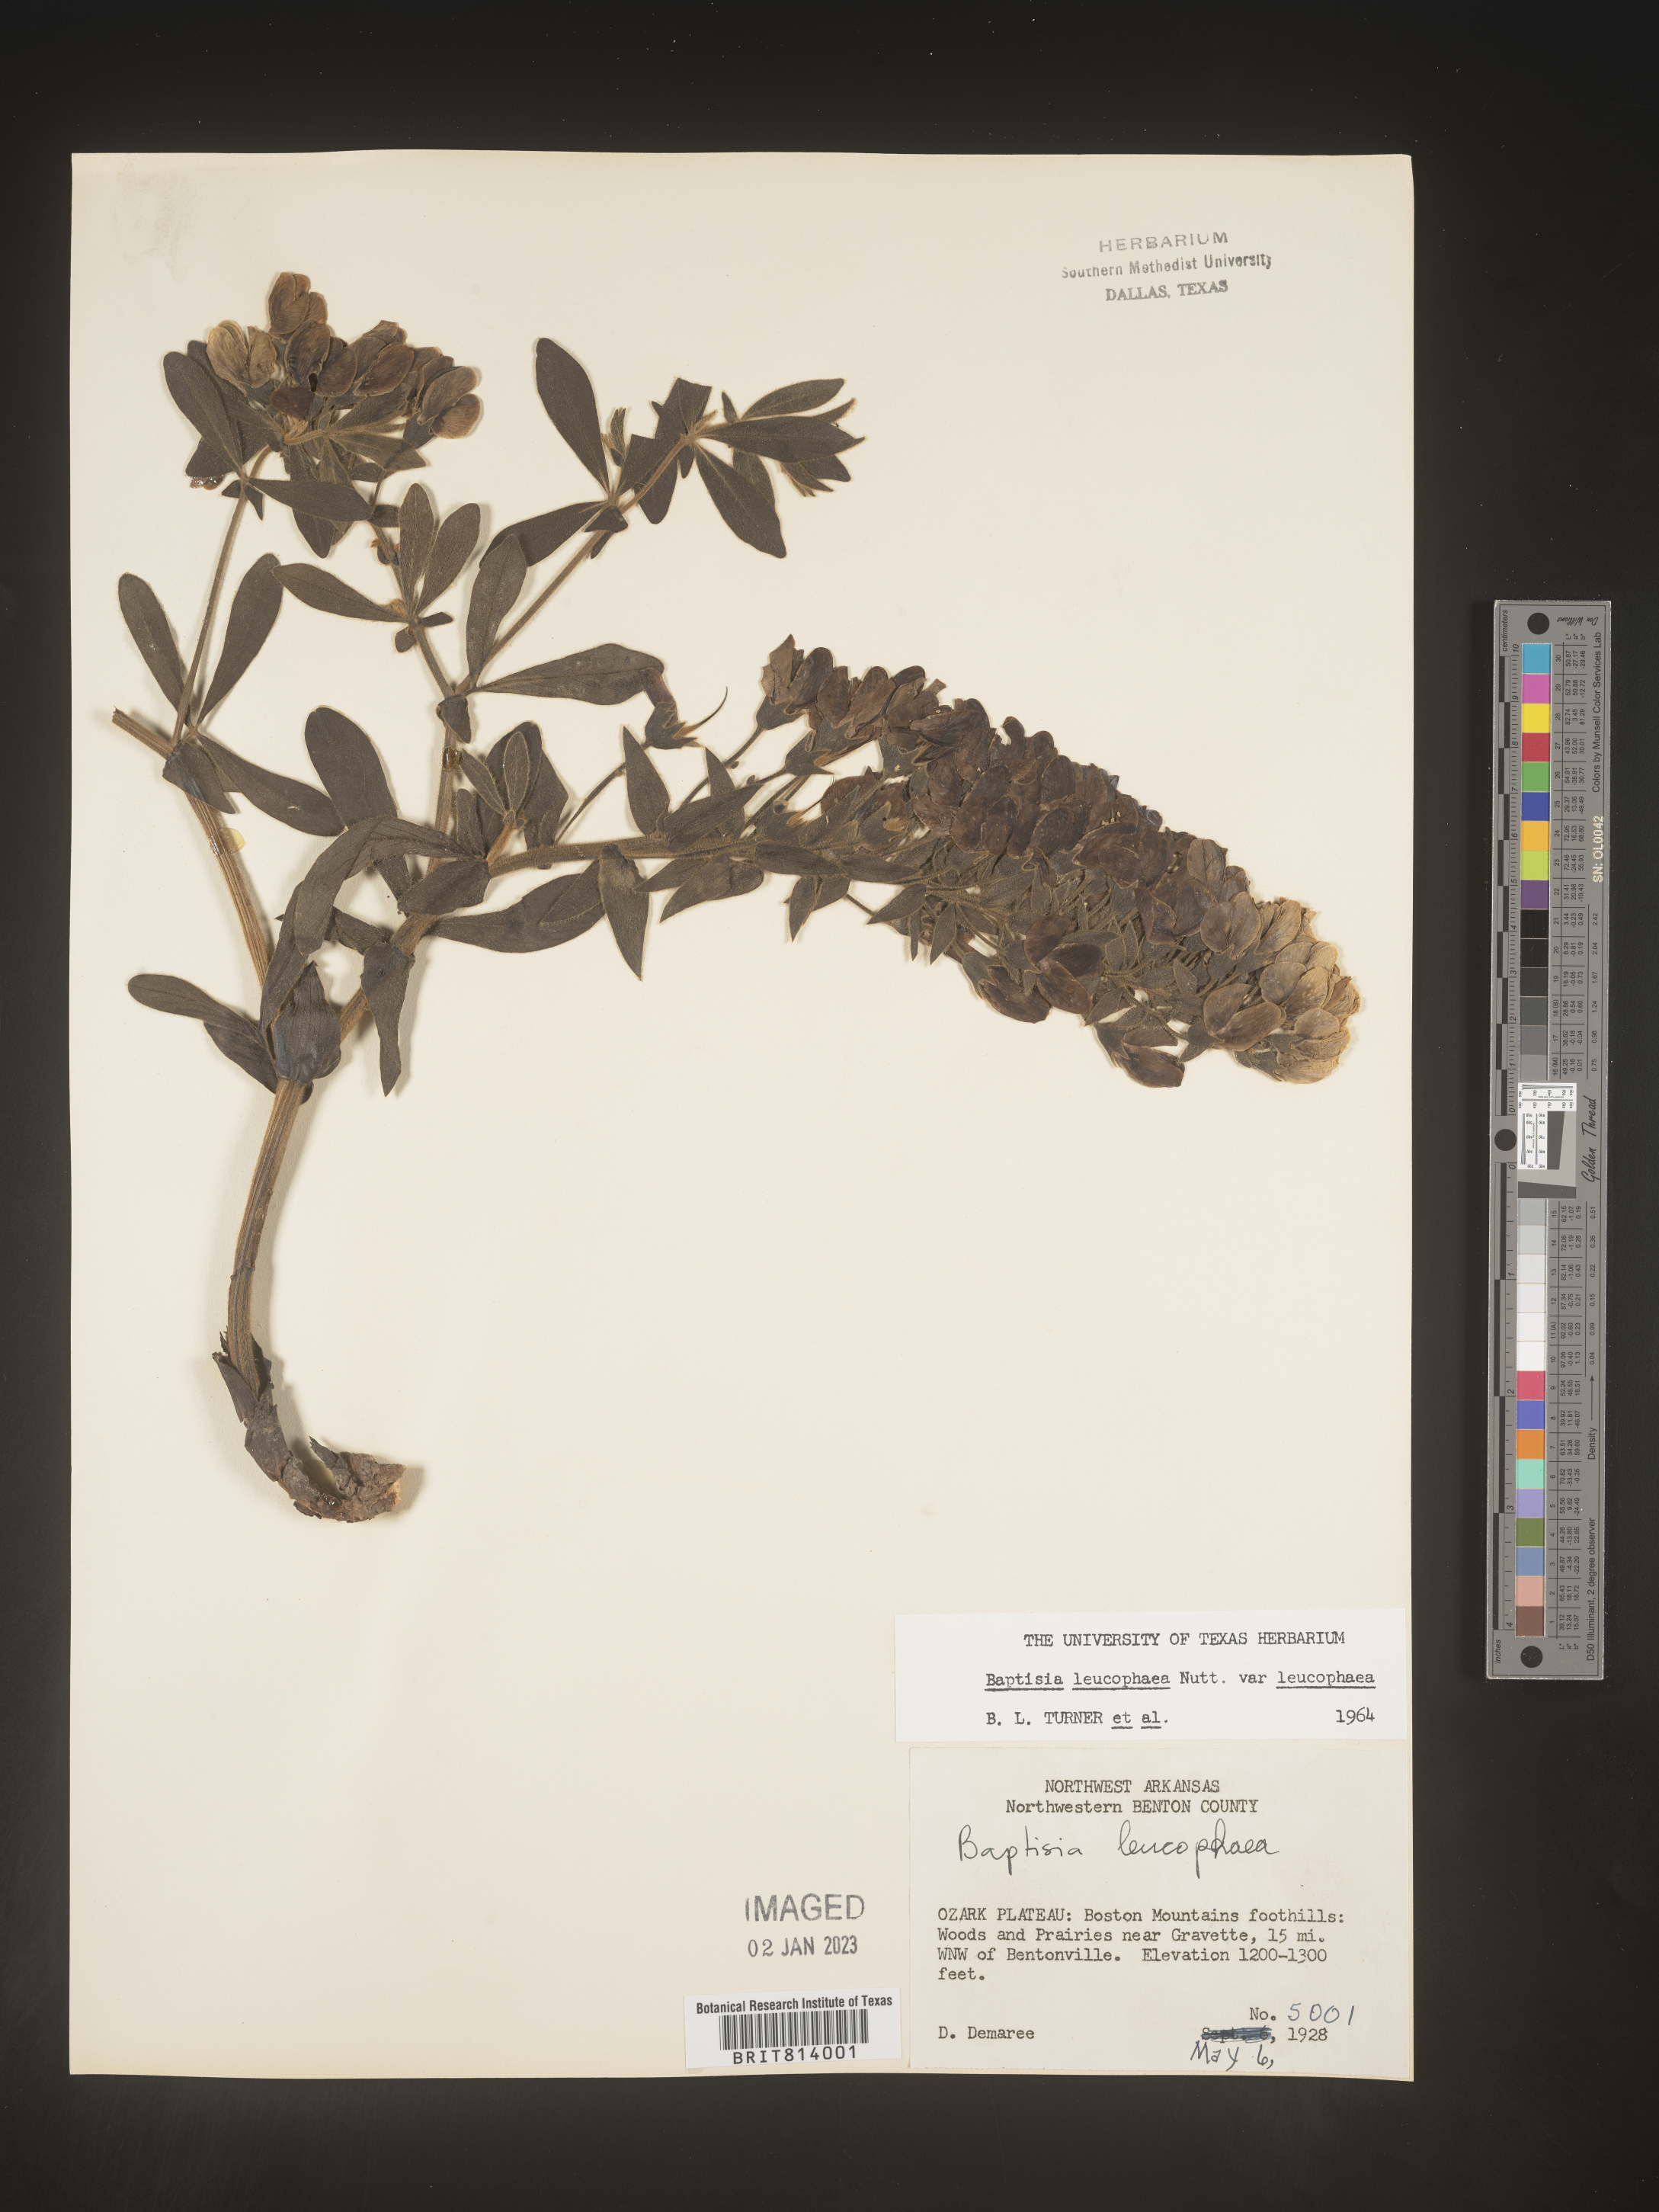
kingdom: Plantae
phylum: Tracheophyta
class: Magnoliopsida
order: Fabales
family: Fabaceae
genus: Baptisia
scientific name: Baptisia bracteata
